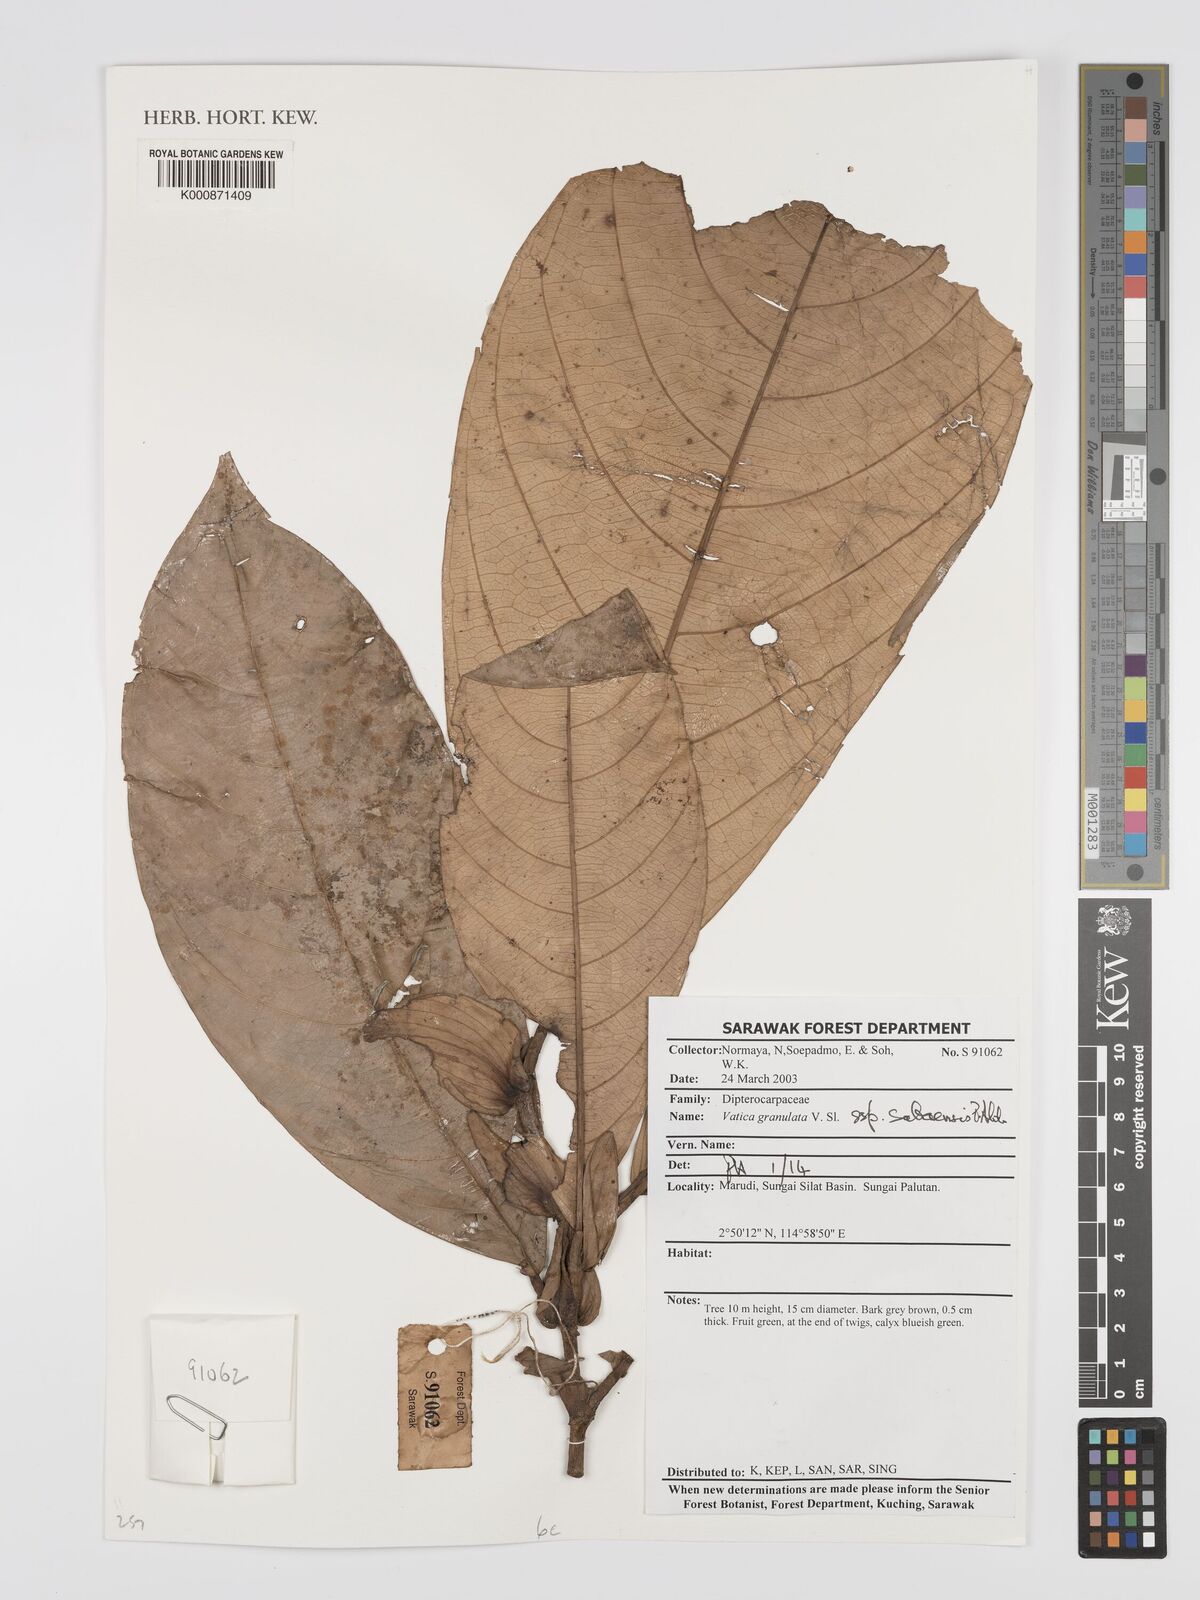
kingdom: Plantae
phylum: Tracheophyta
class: Magnoliopsida
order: Malvales
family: Dipterocarpaceae
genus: Vatica
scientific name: Vatica granulata
